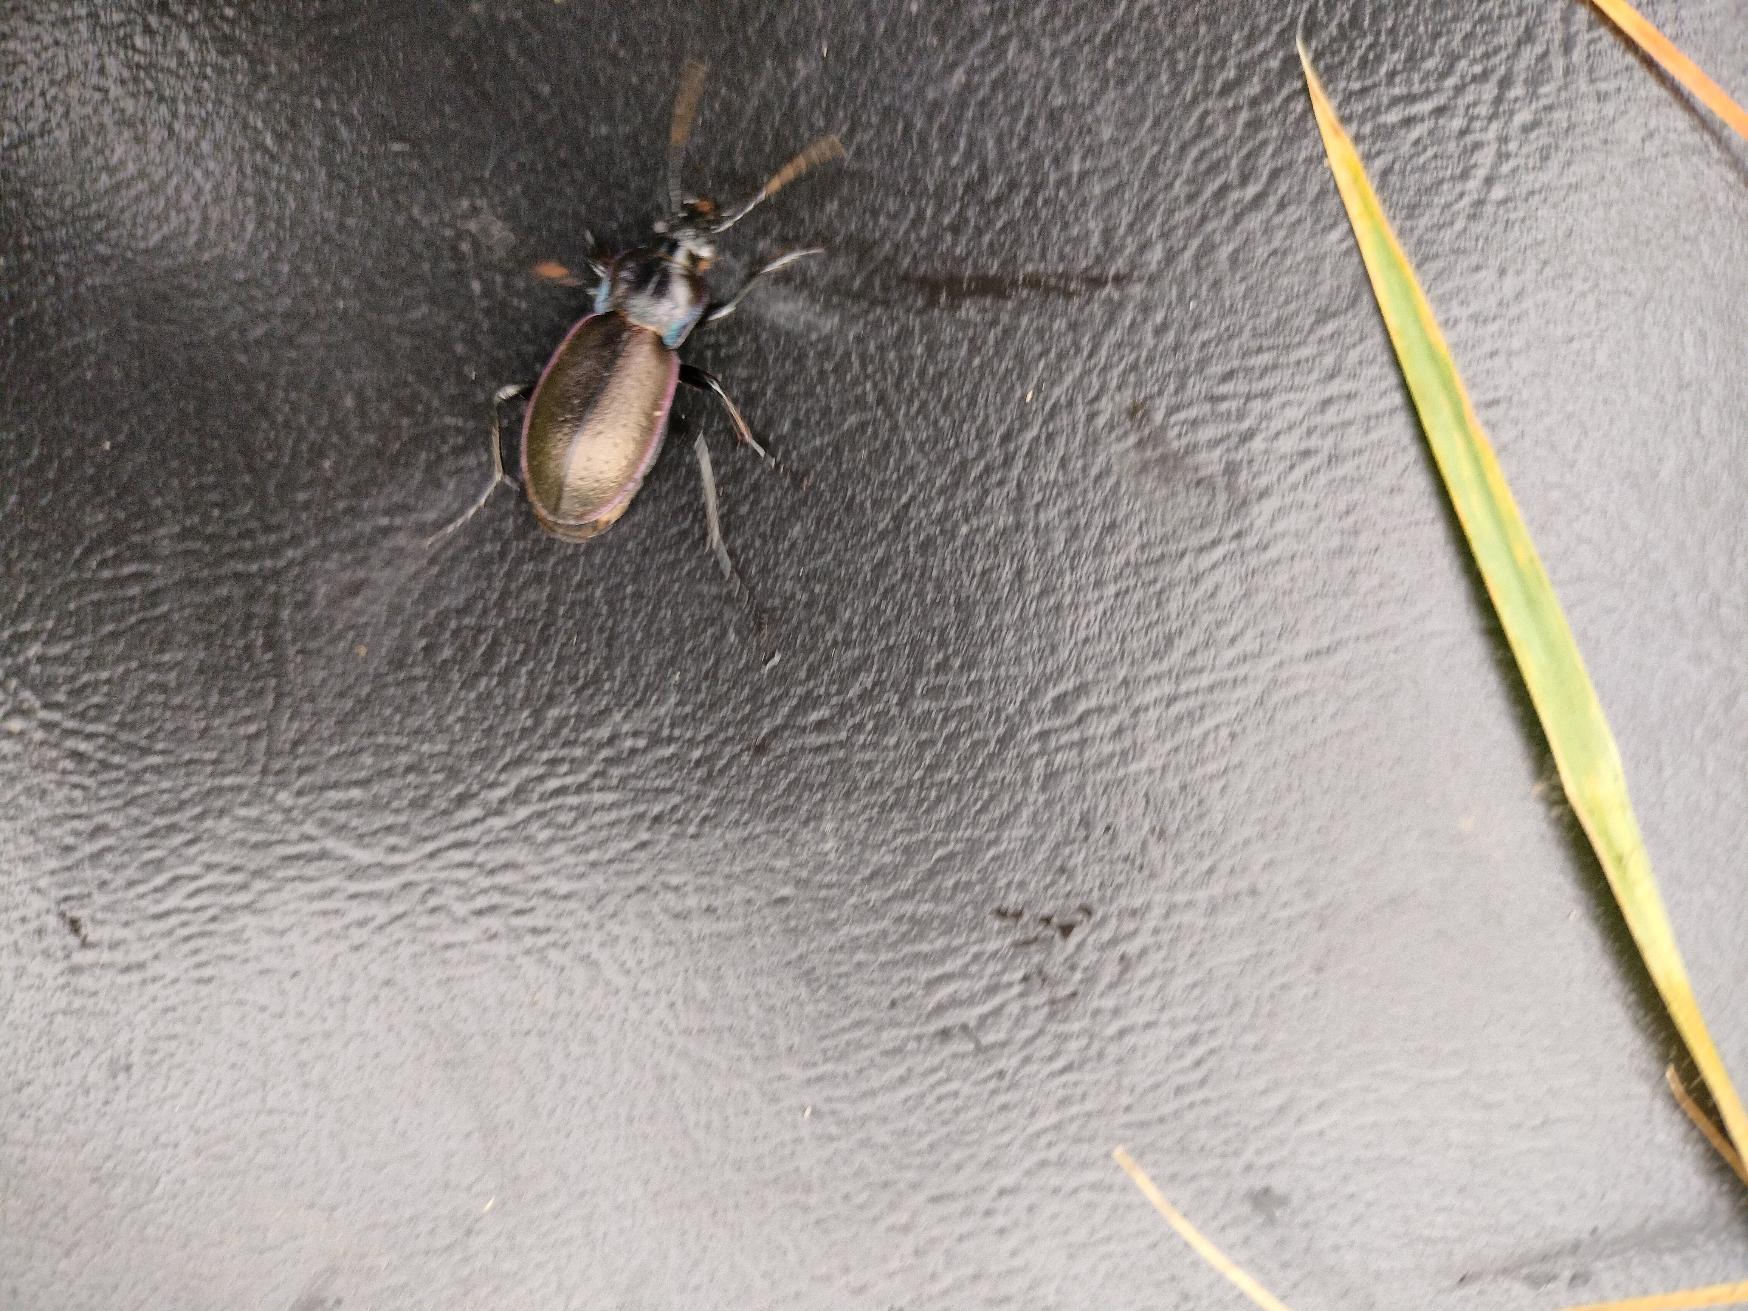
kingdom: Animalia
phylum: Arthropoda
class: Insecta
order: Coleoptera
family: Carabidae
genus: Carabus
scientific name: Carabus nemoralis
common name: Kratløber
